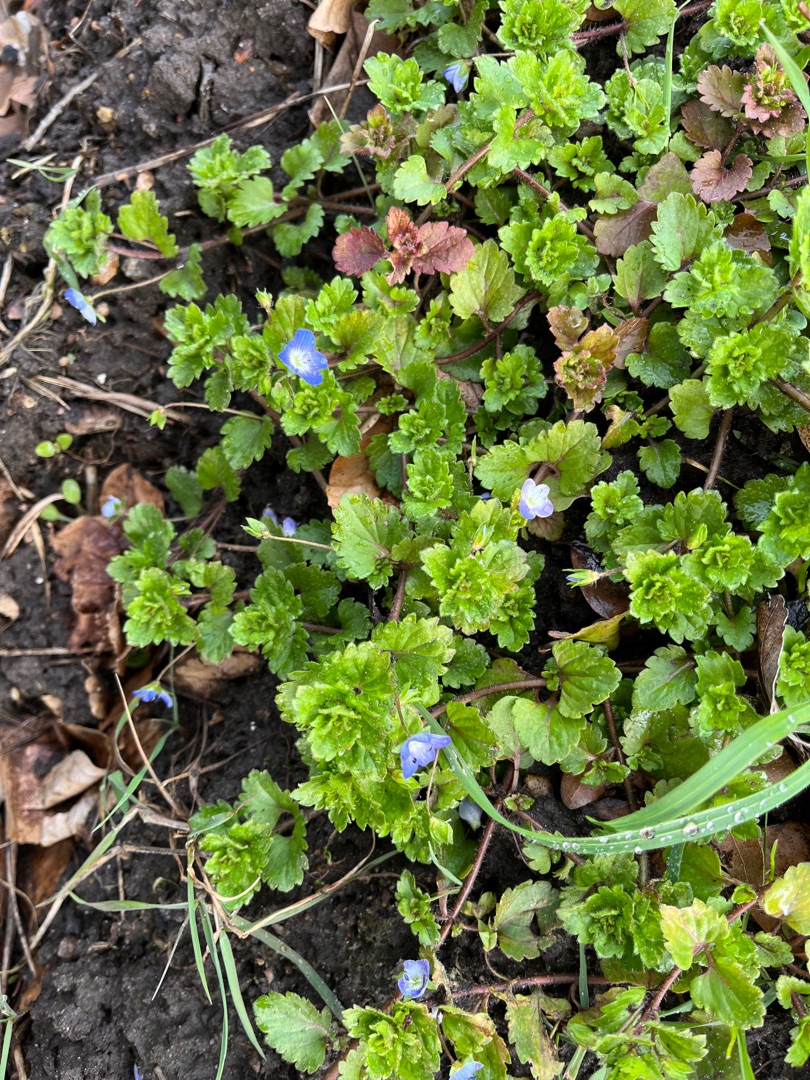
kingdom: Plantae
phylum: Tracheophyta
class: Magnoliopsida
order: Lamiales
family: Plantaginaceae
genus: Veronica
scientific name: Veronica persica
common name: Storkronet ærenpris
